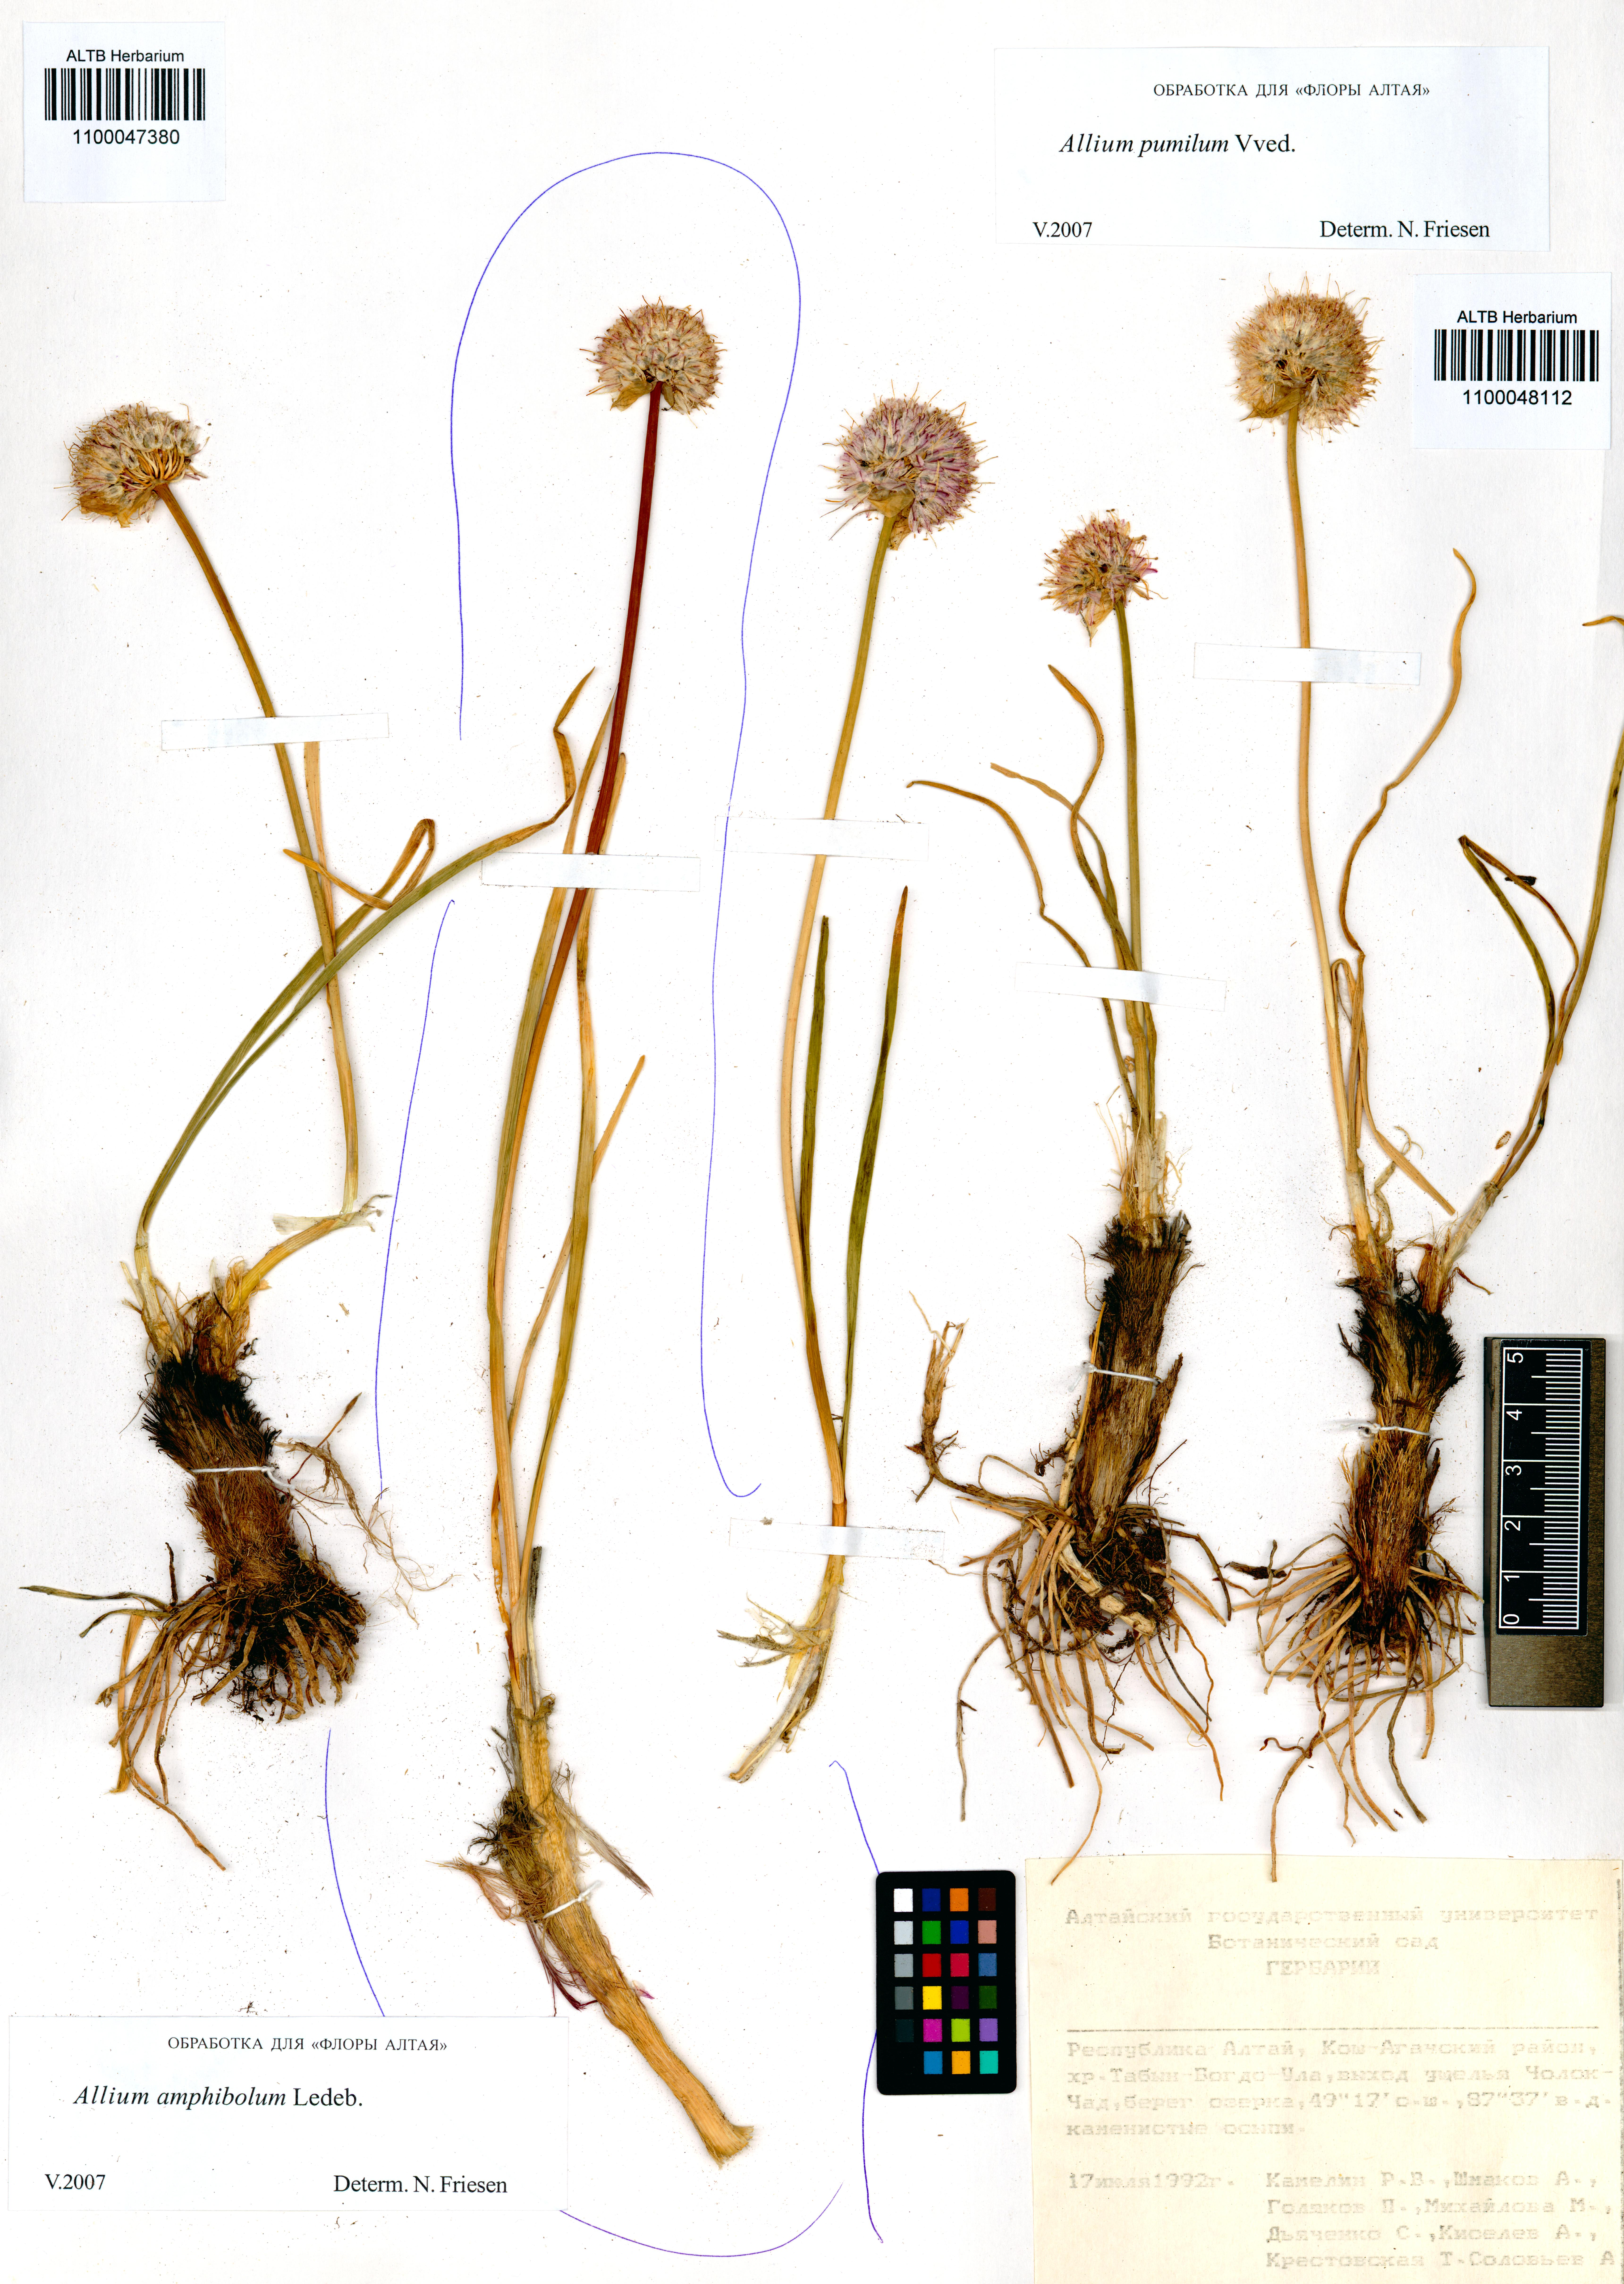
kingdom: Plantae
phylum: Tracheophyta
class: Liliopsida
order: Asparagales
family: Amaryllidaceae
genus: Allium
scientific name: Allium amphibolum
